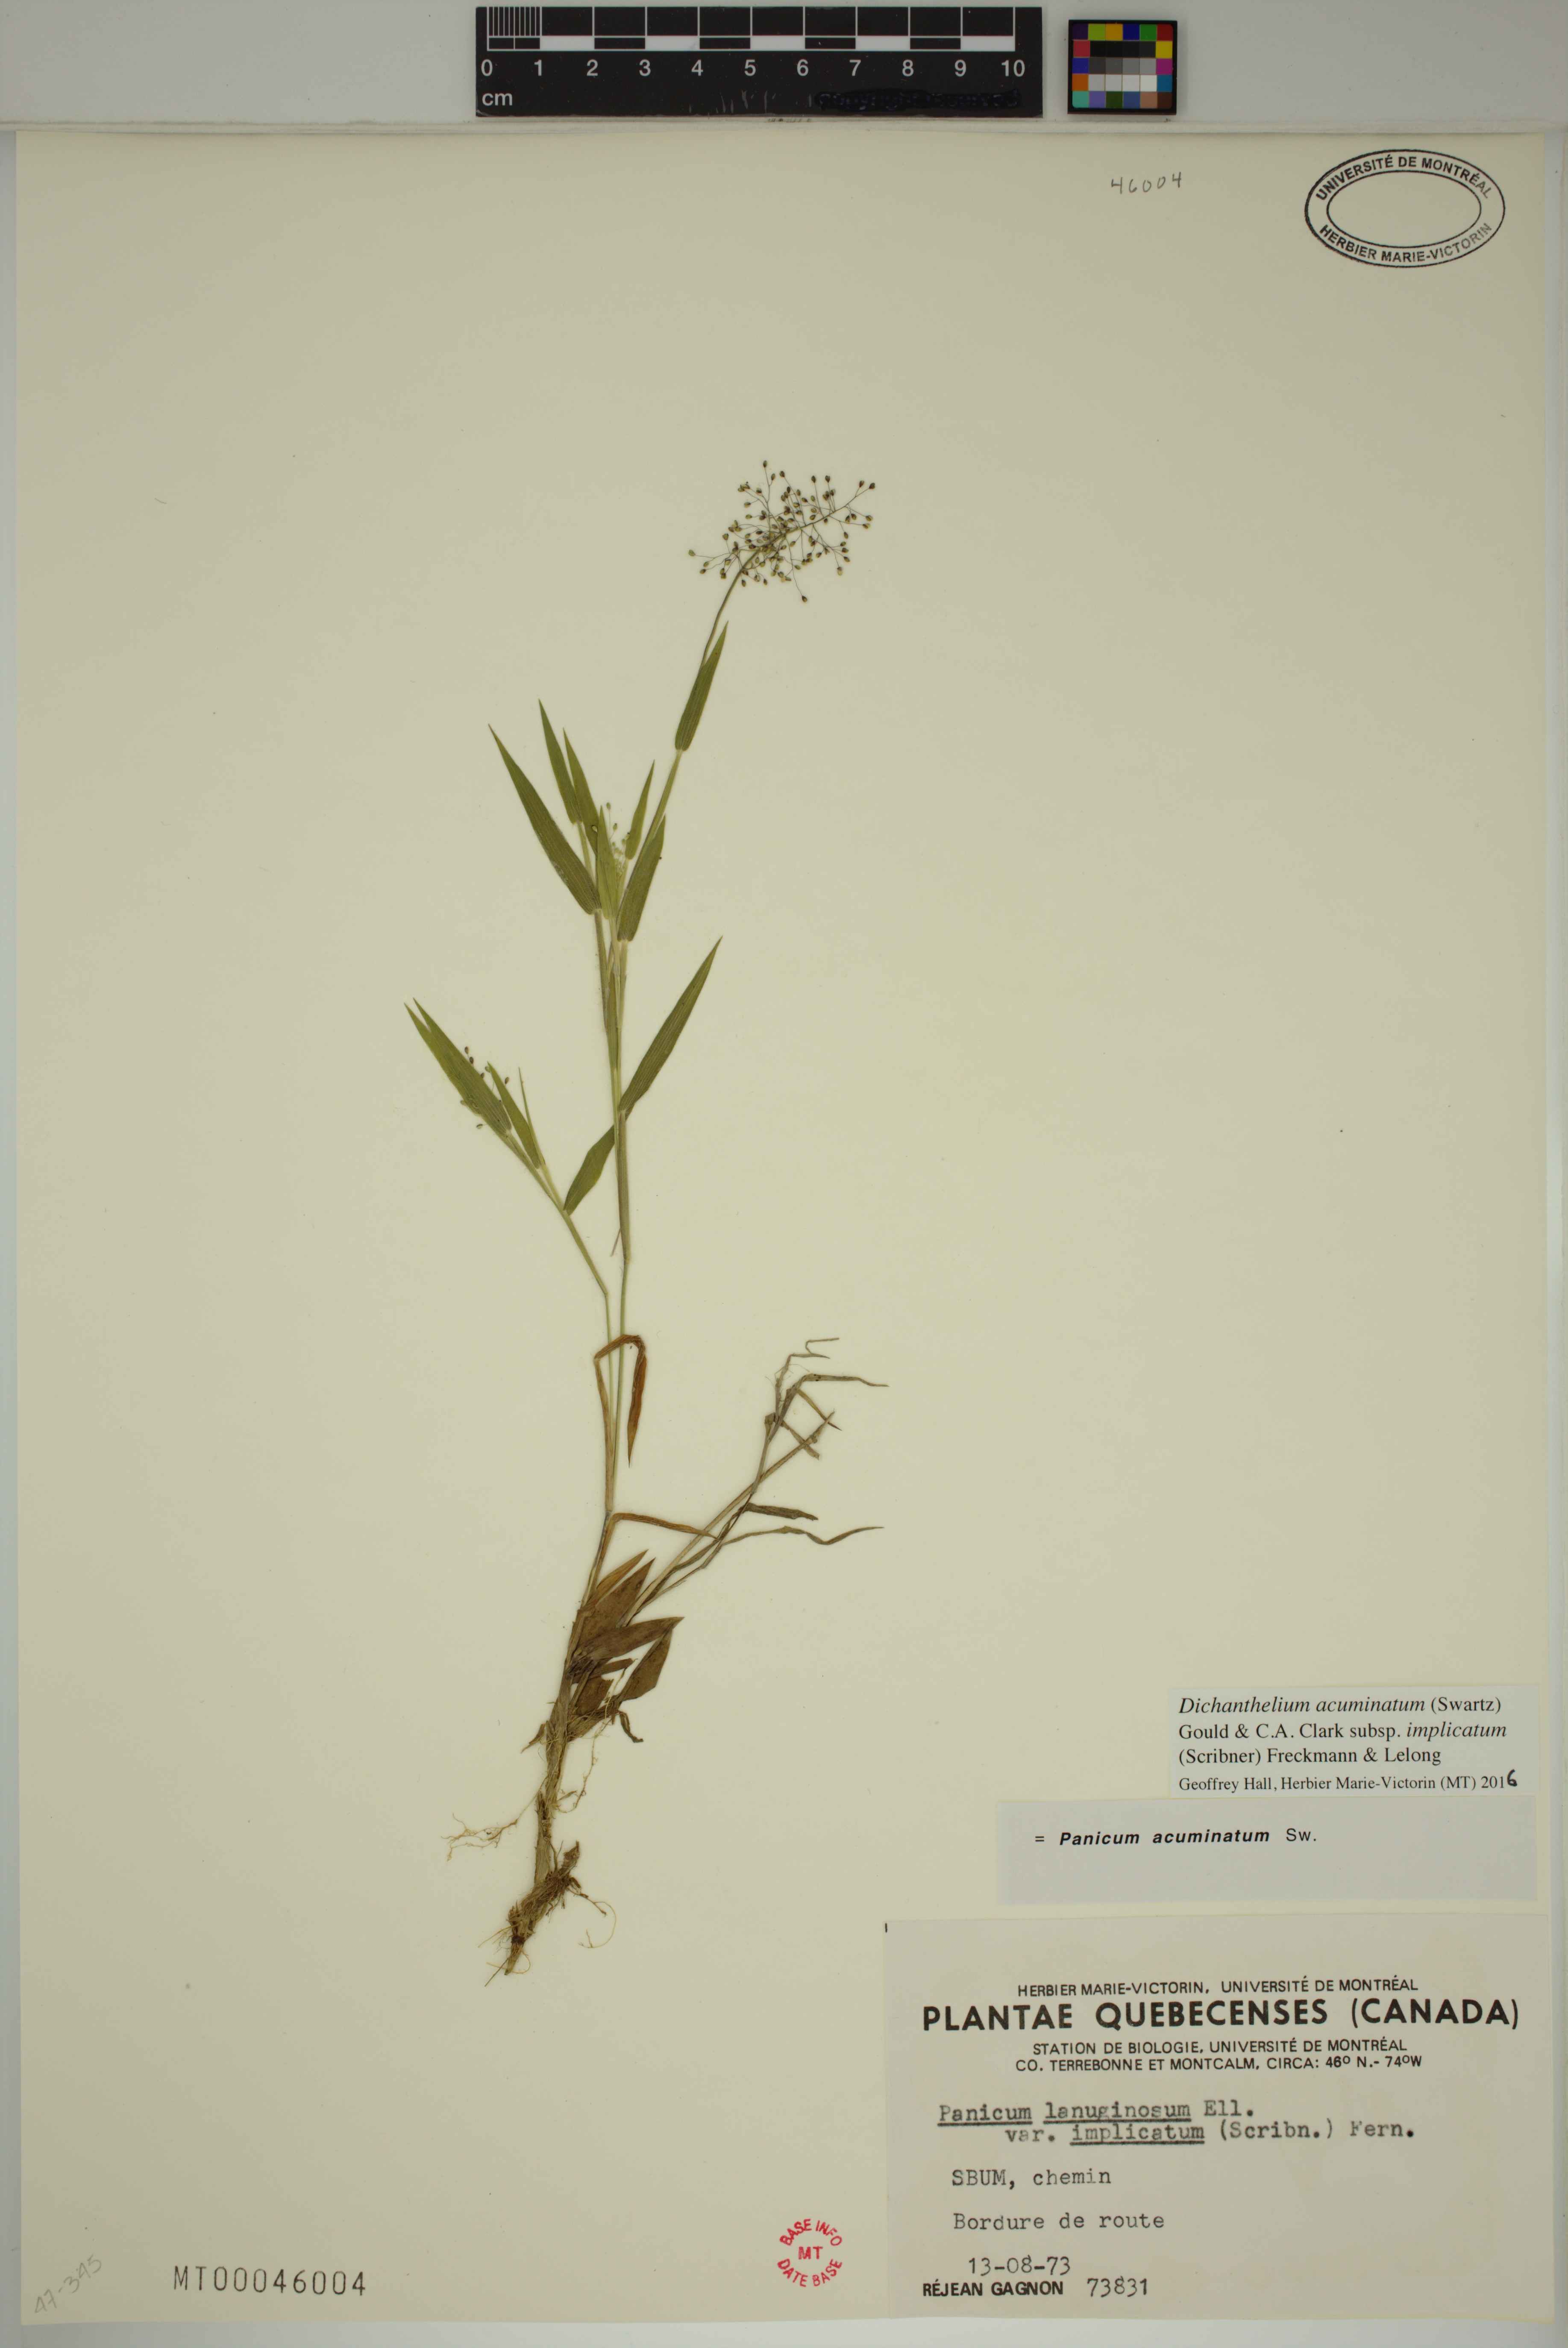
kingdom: Plantae
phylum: Tracheophyta
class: Liliopsida
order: Poales
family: Poaceae
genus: Dichanthelium
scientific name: Dichanthelium implicatum
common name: Slender-stemmed panicgrass
